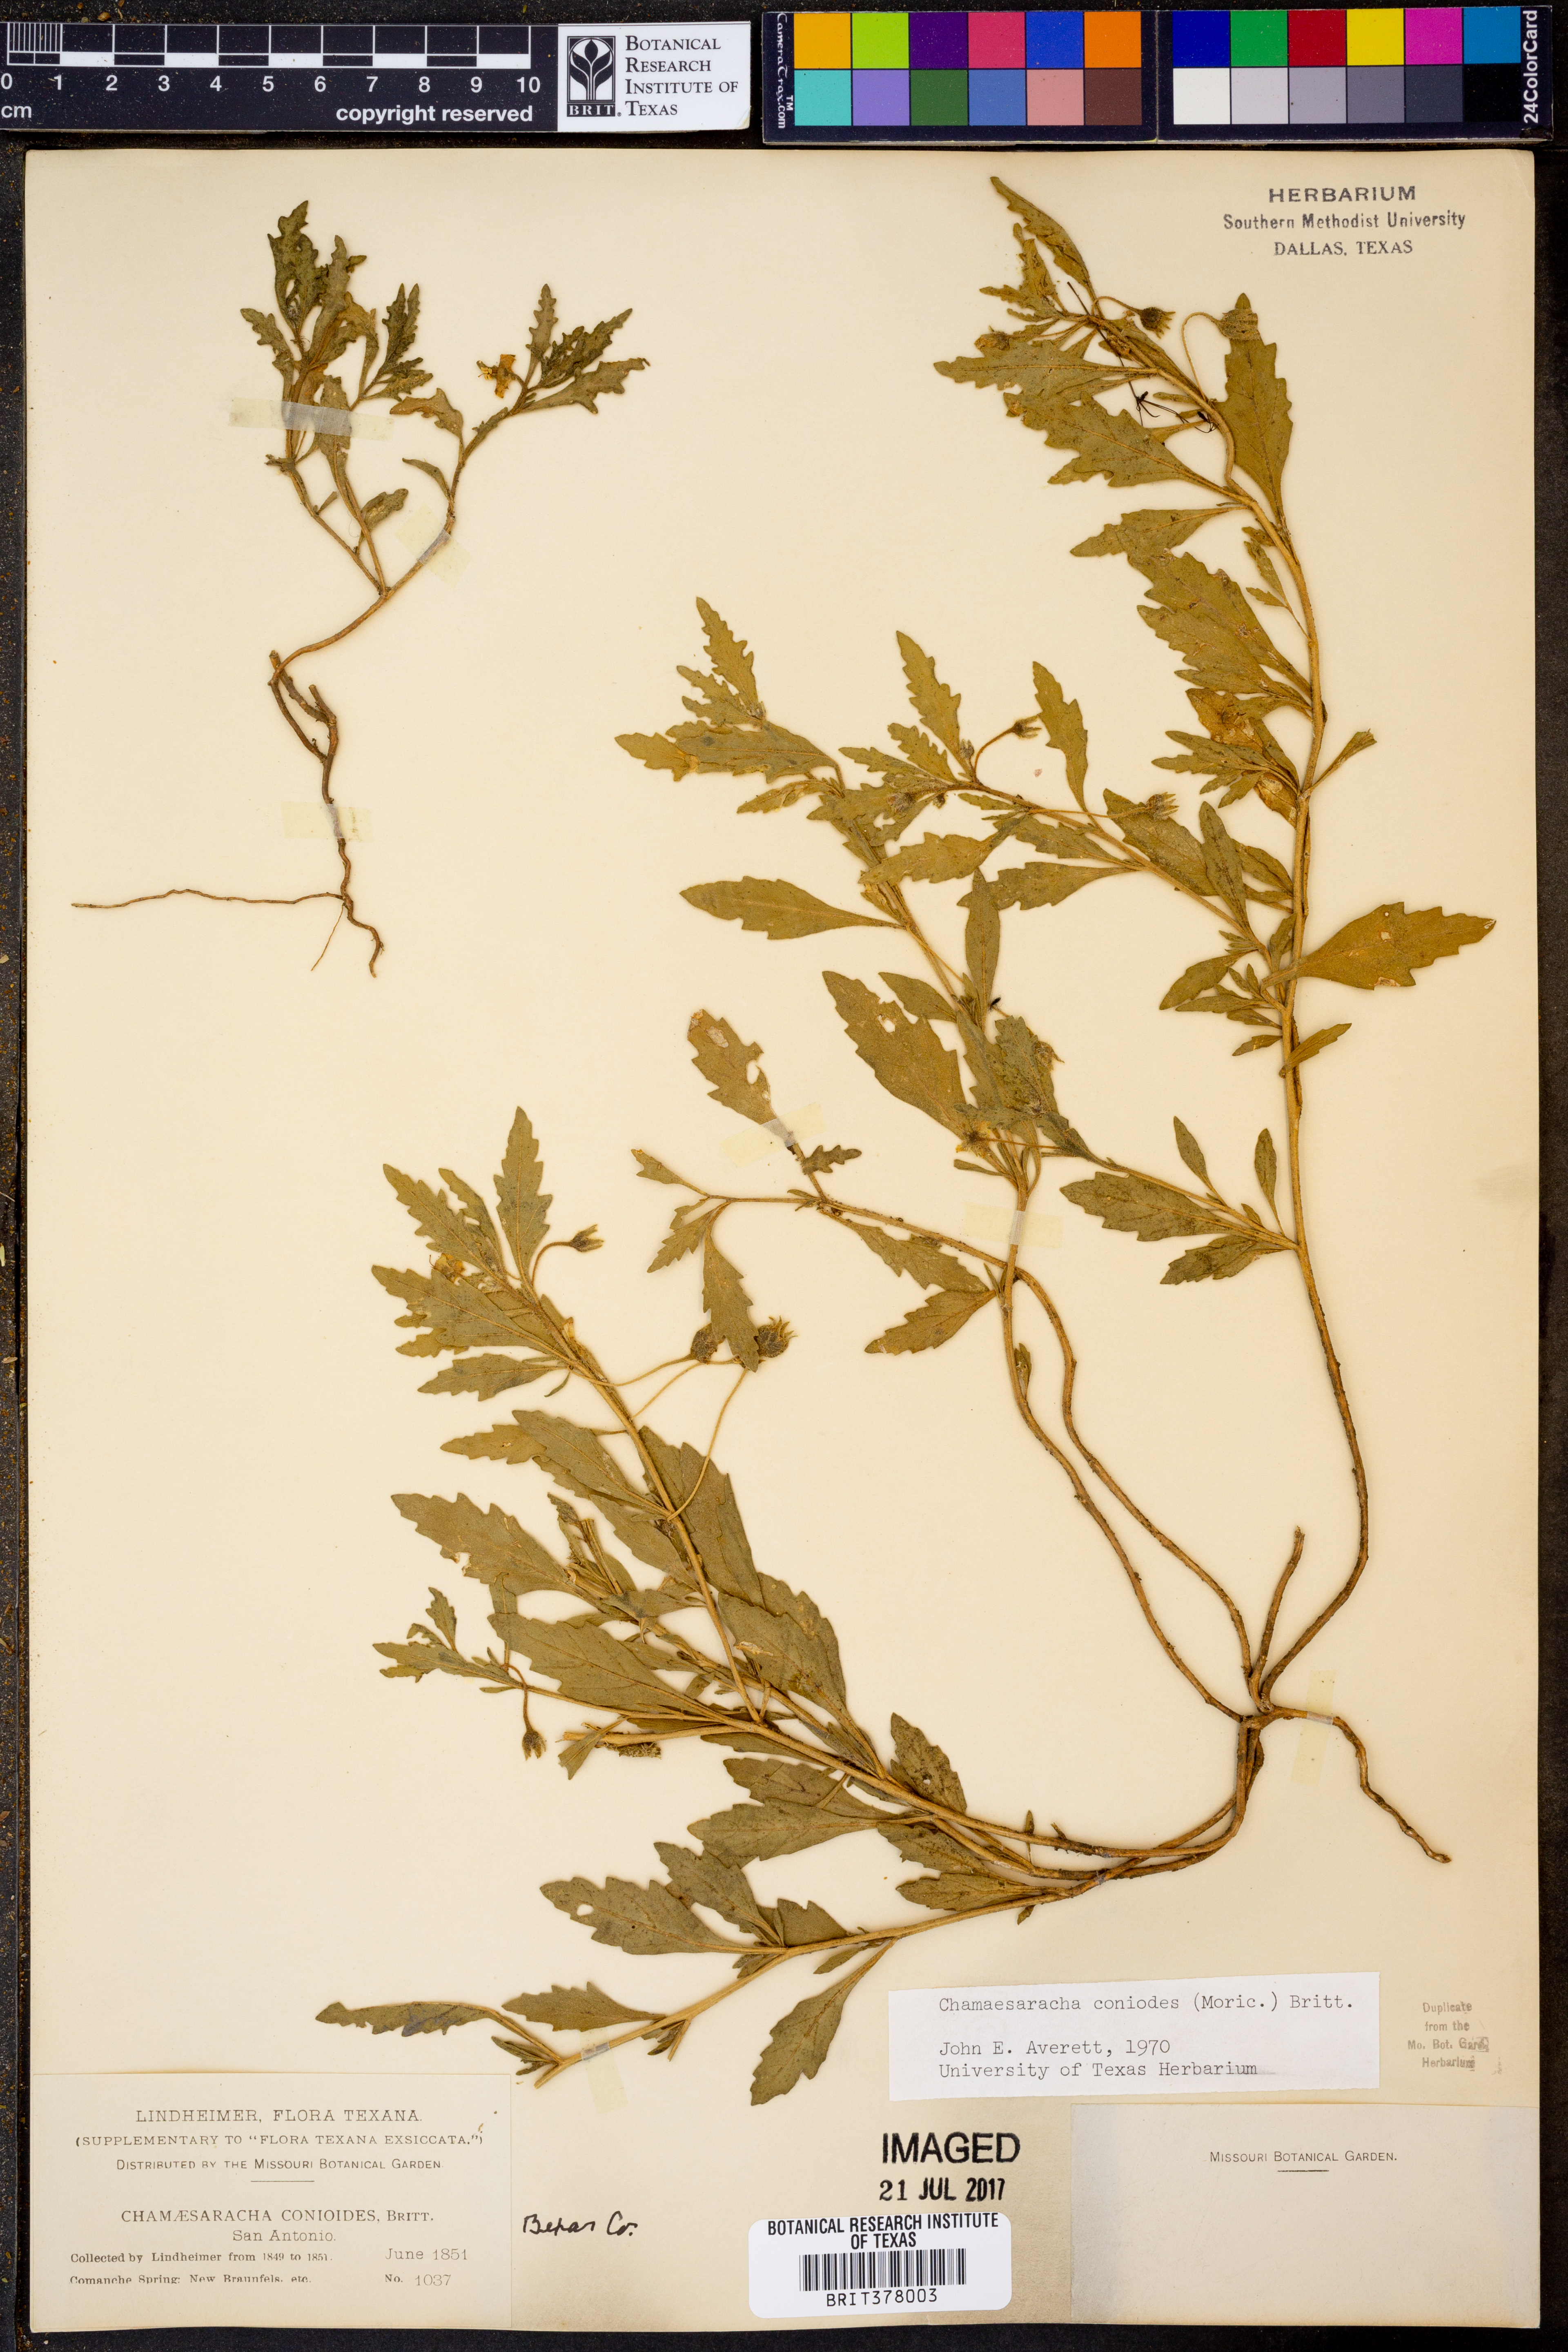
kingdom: Plantae
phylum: Tracheophyta
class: Magnoliopsida
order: Solanales
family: Solanaceae
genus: Chamaesaracha
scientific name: Chamaesaracha coniodes
